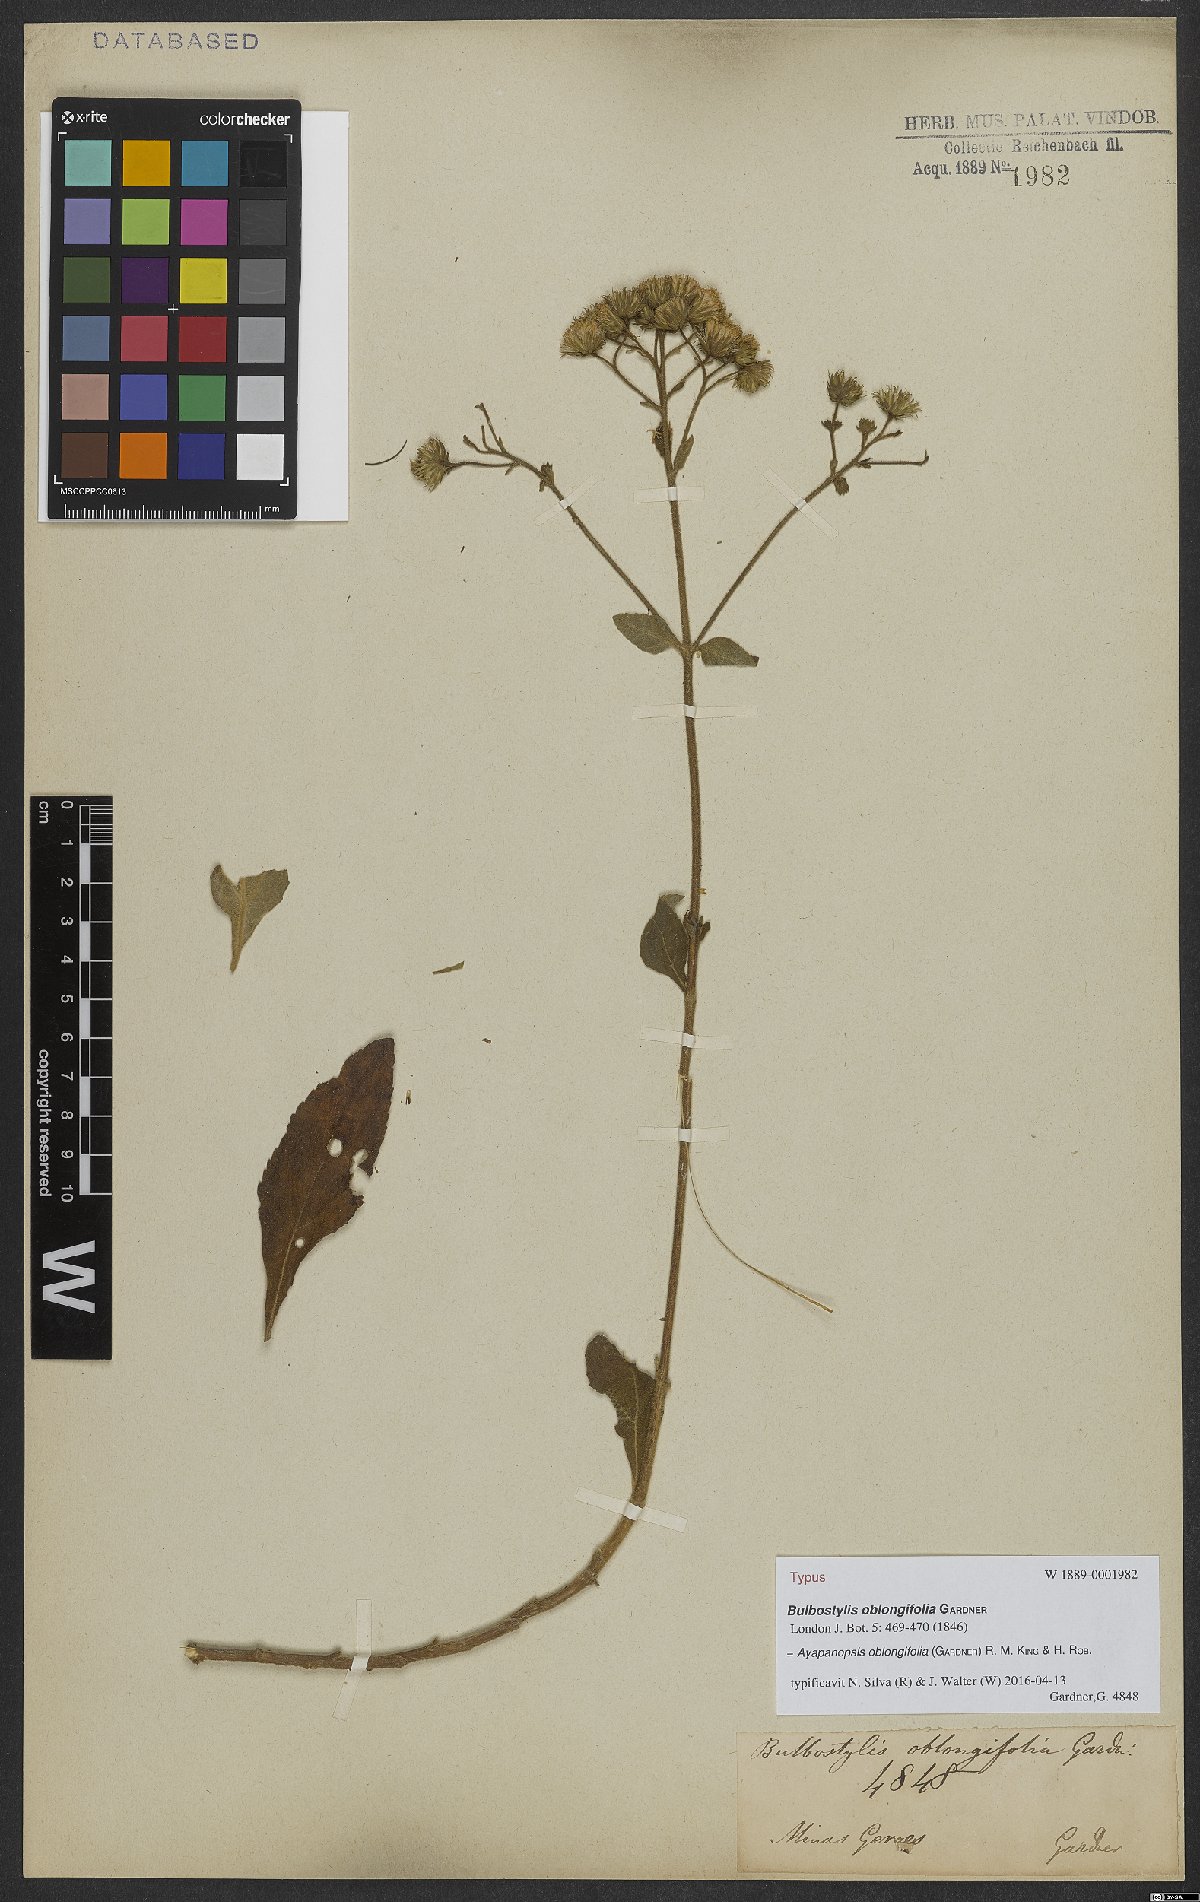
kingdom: Plantae
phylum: Tracheophyta
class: Magnoliopsida
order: Asterales
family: Asteraceae
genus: Ayapanopsis
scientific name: Ayapanopsis oblongifolia
